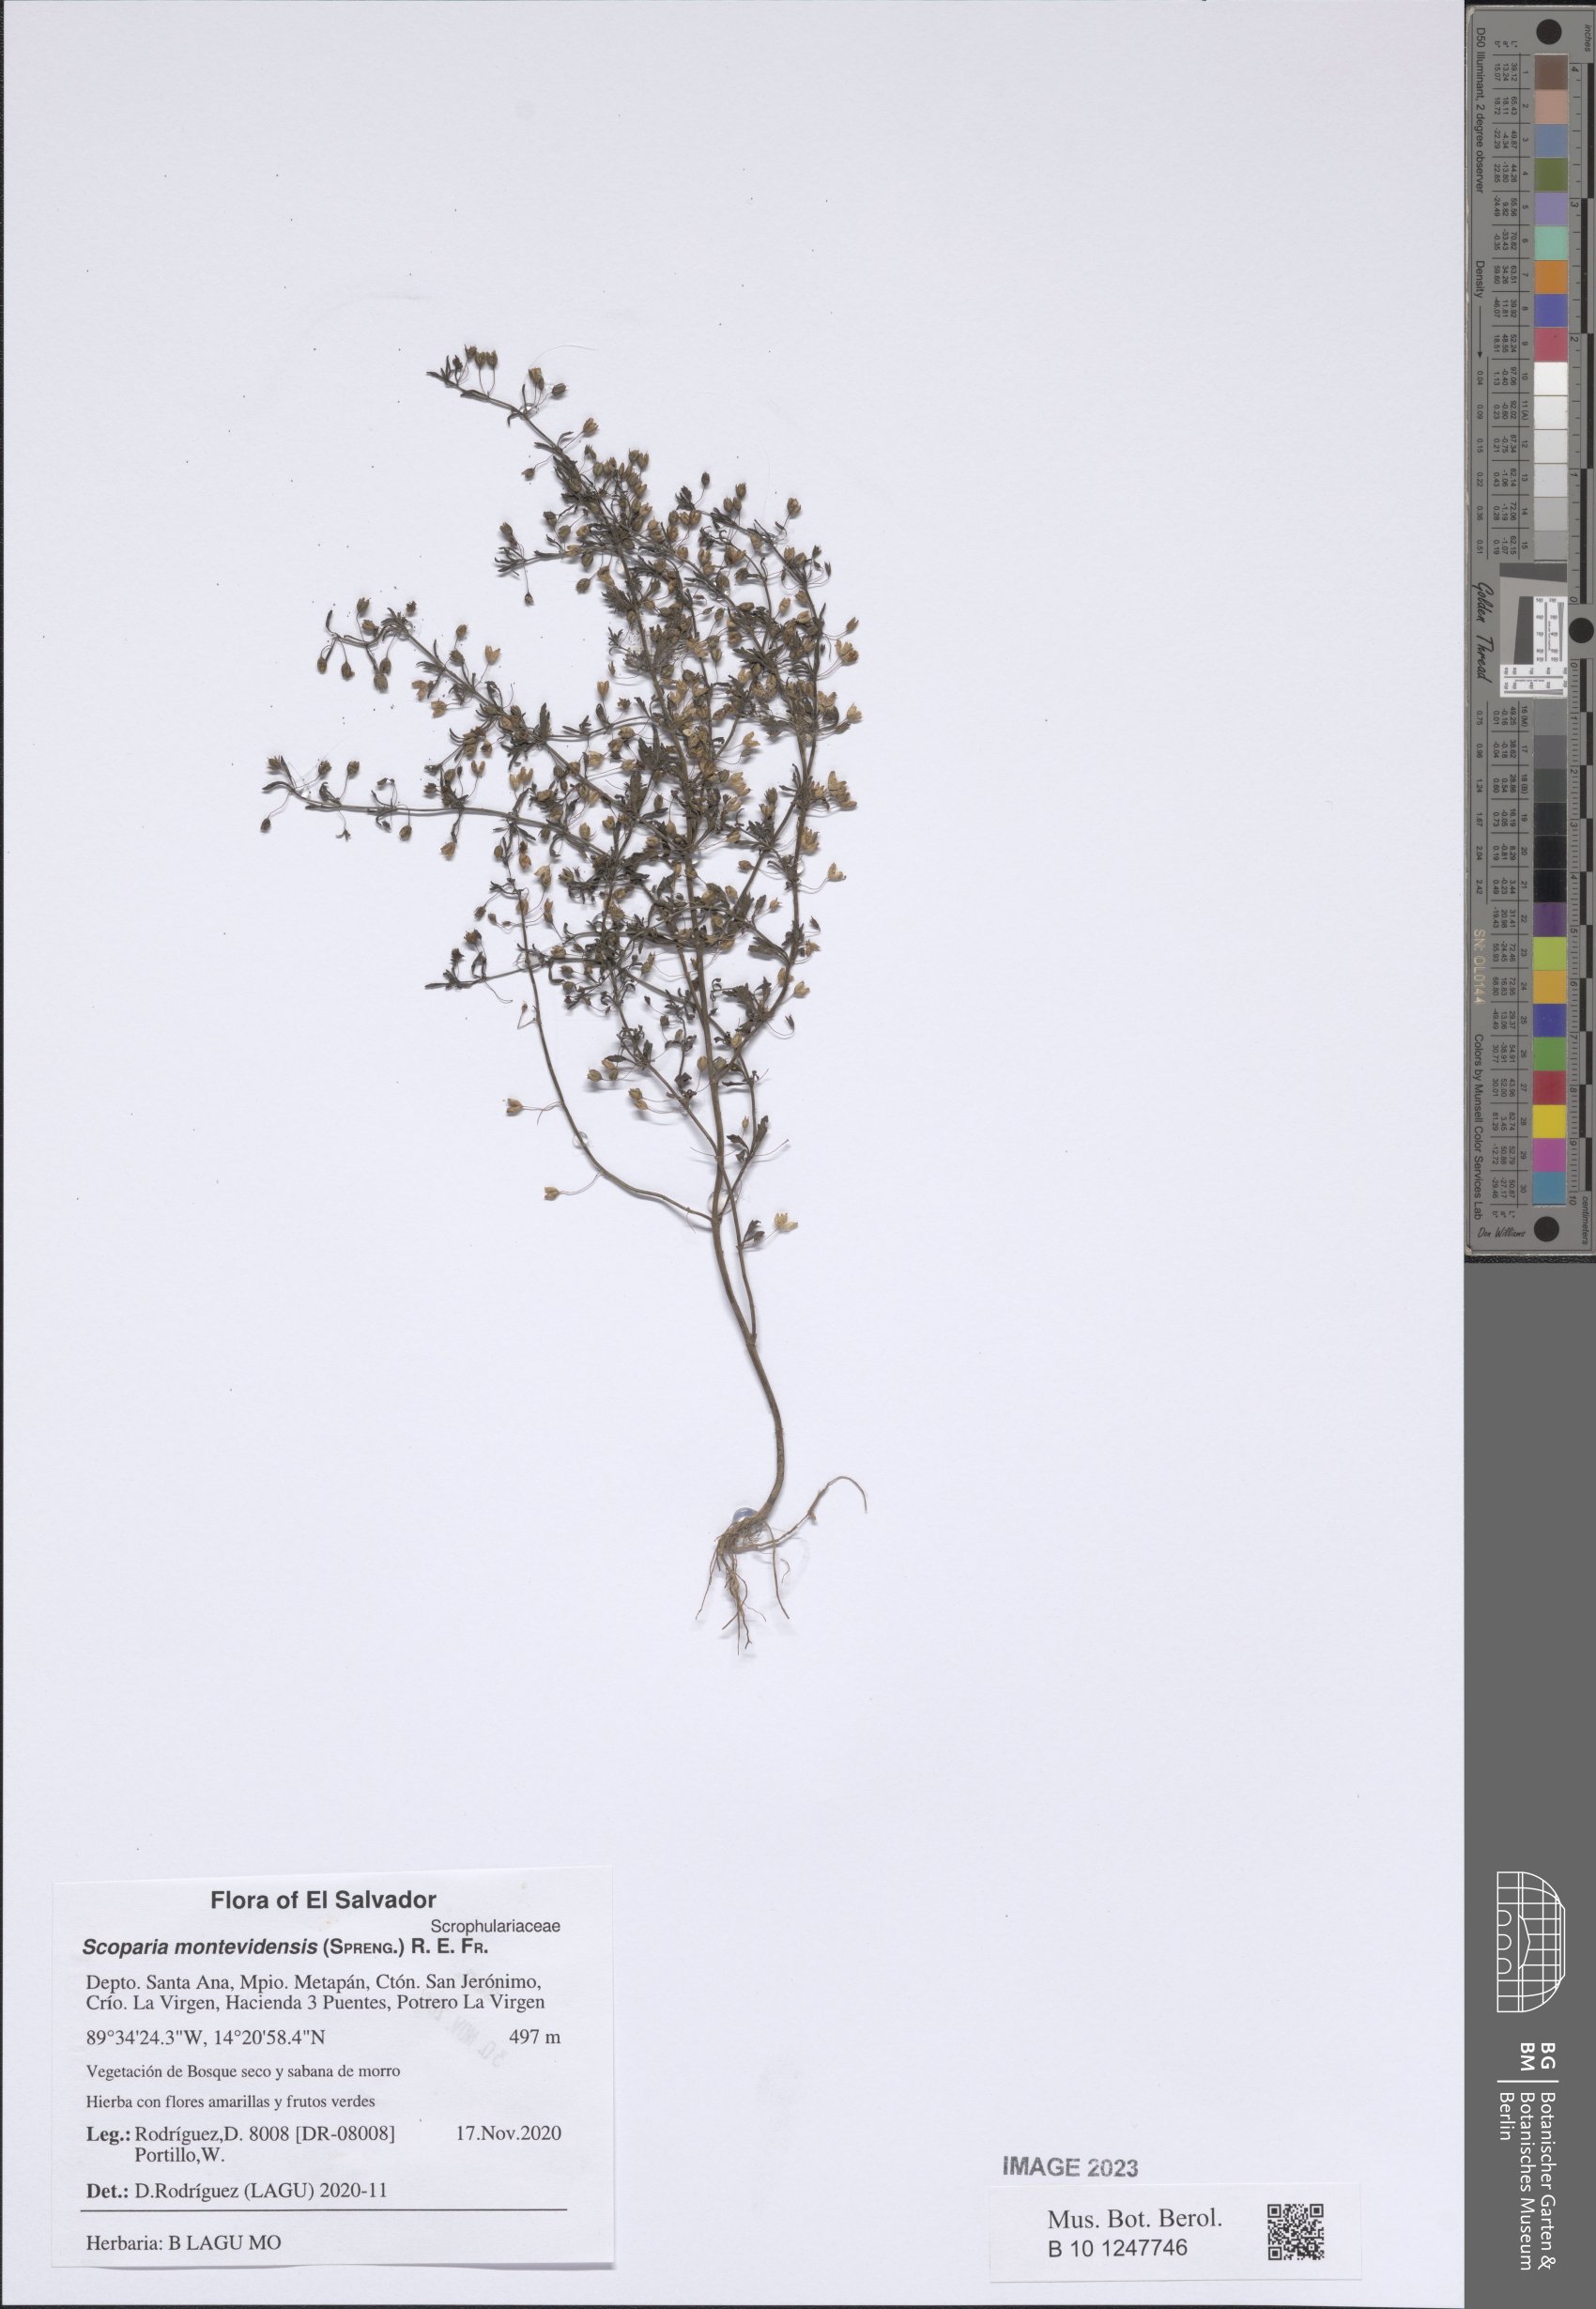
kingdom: Plantae
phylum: Tracheophyta
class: Magnoliopsida
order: Lamiales
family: Plantaginaceae
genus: Scoparia
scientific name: Scoparia montevidensis
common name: Broomwort
